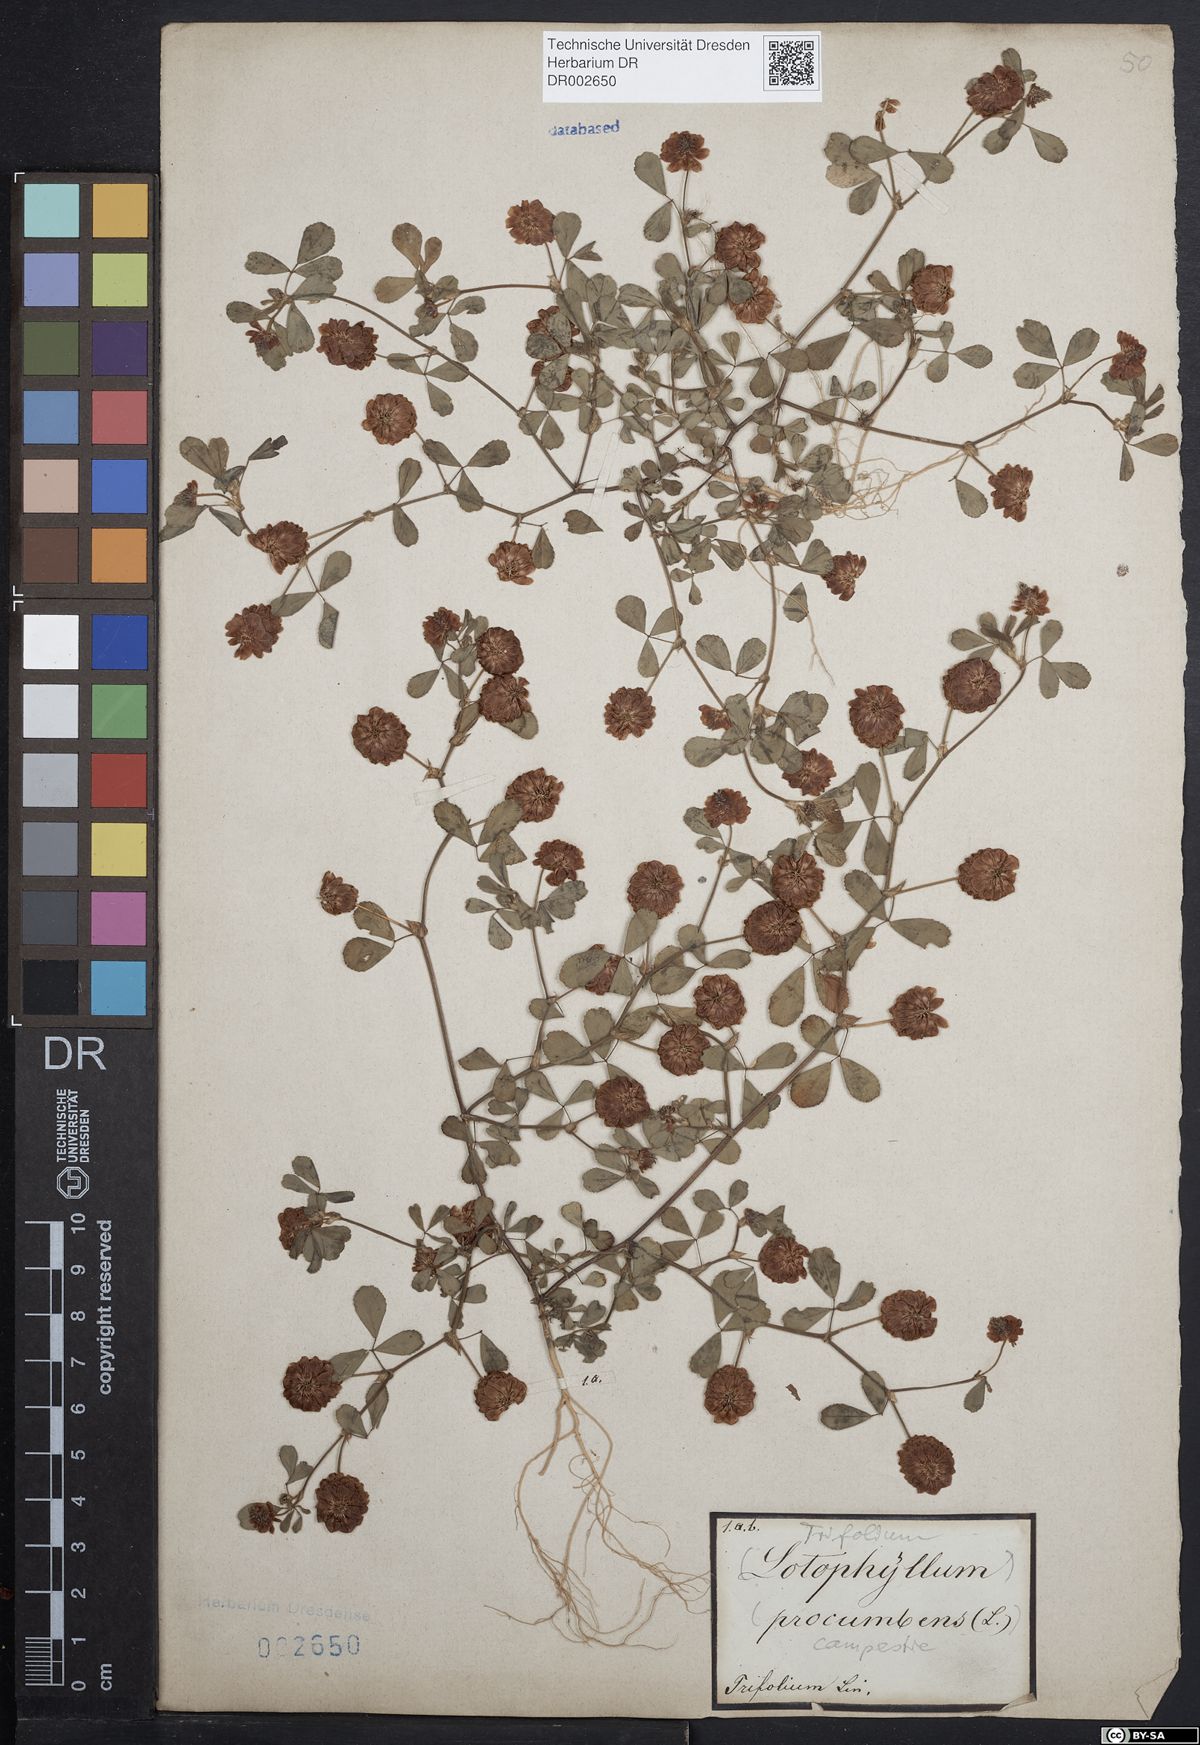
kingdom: Plantae
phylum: Tracheophyta
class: Magnoliopsida
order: Fabales
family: Fabaceae
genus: Trifolium
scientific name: Trifolium campestre
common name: Field clover
